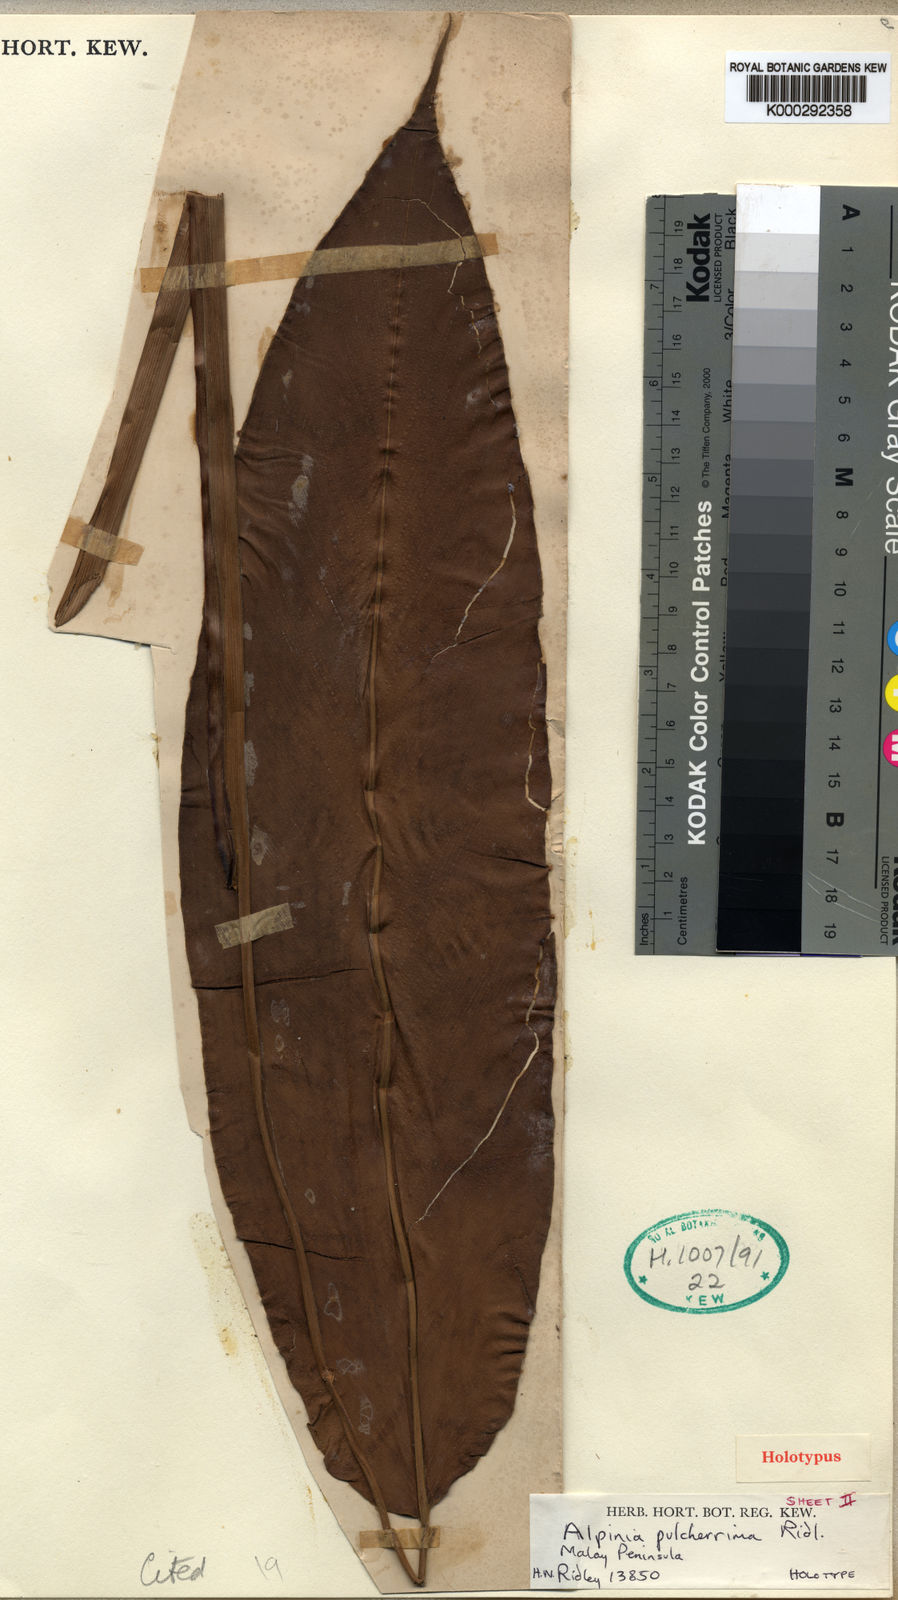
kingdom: Plantae
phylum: Tracheophyta
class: Liliopsida
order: Zingiberales
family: Zingiberaceae
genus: Alpinia
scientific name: Alpinia pulcherrima
